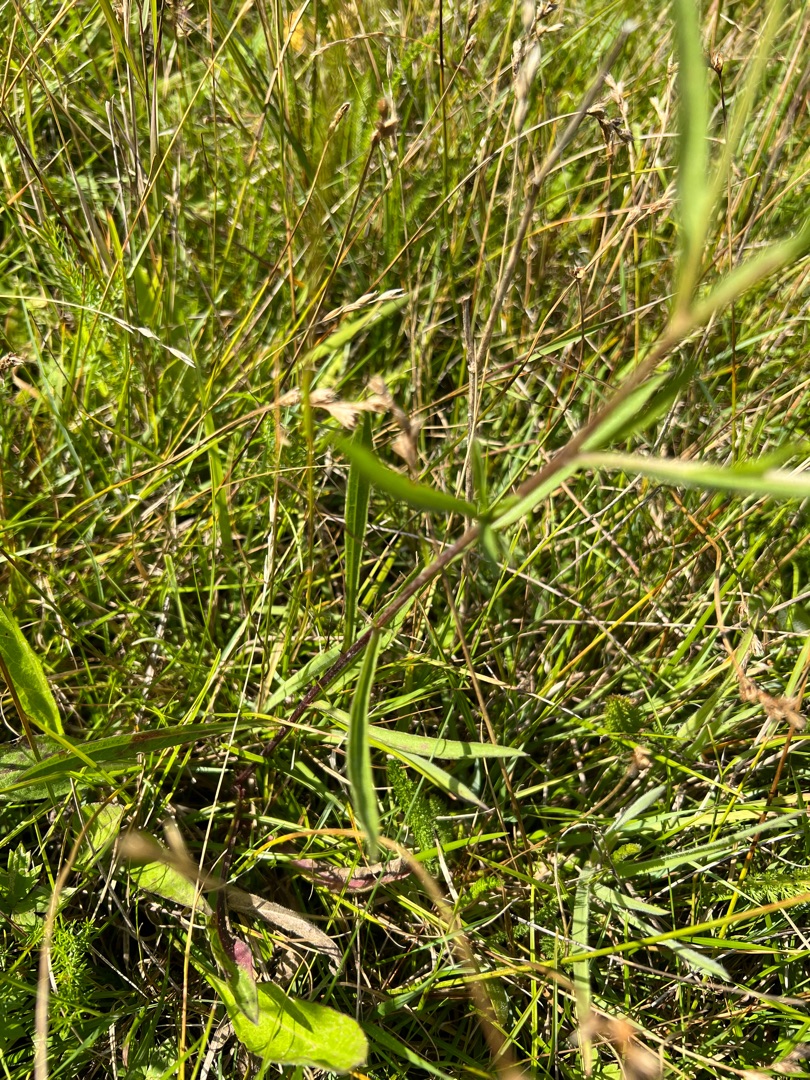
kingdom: Plantae
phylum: Tracheophyta
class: Magnoliopsida
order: Asterales
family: Asteraceae
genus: Centaurea
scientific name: Centaurea jacea
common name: Almindelig knopurt
